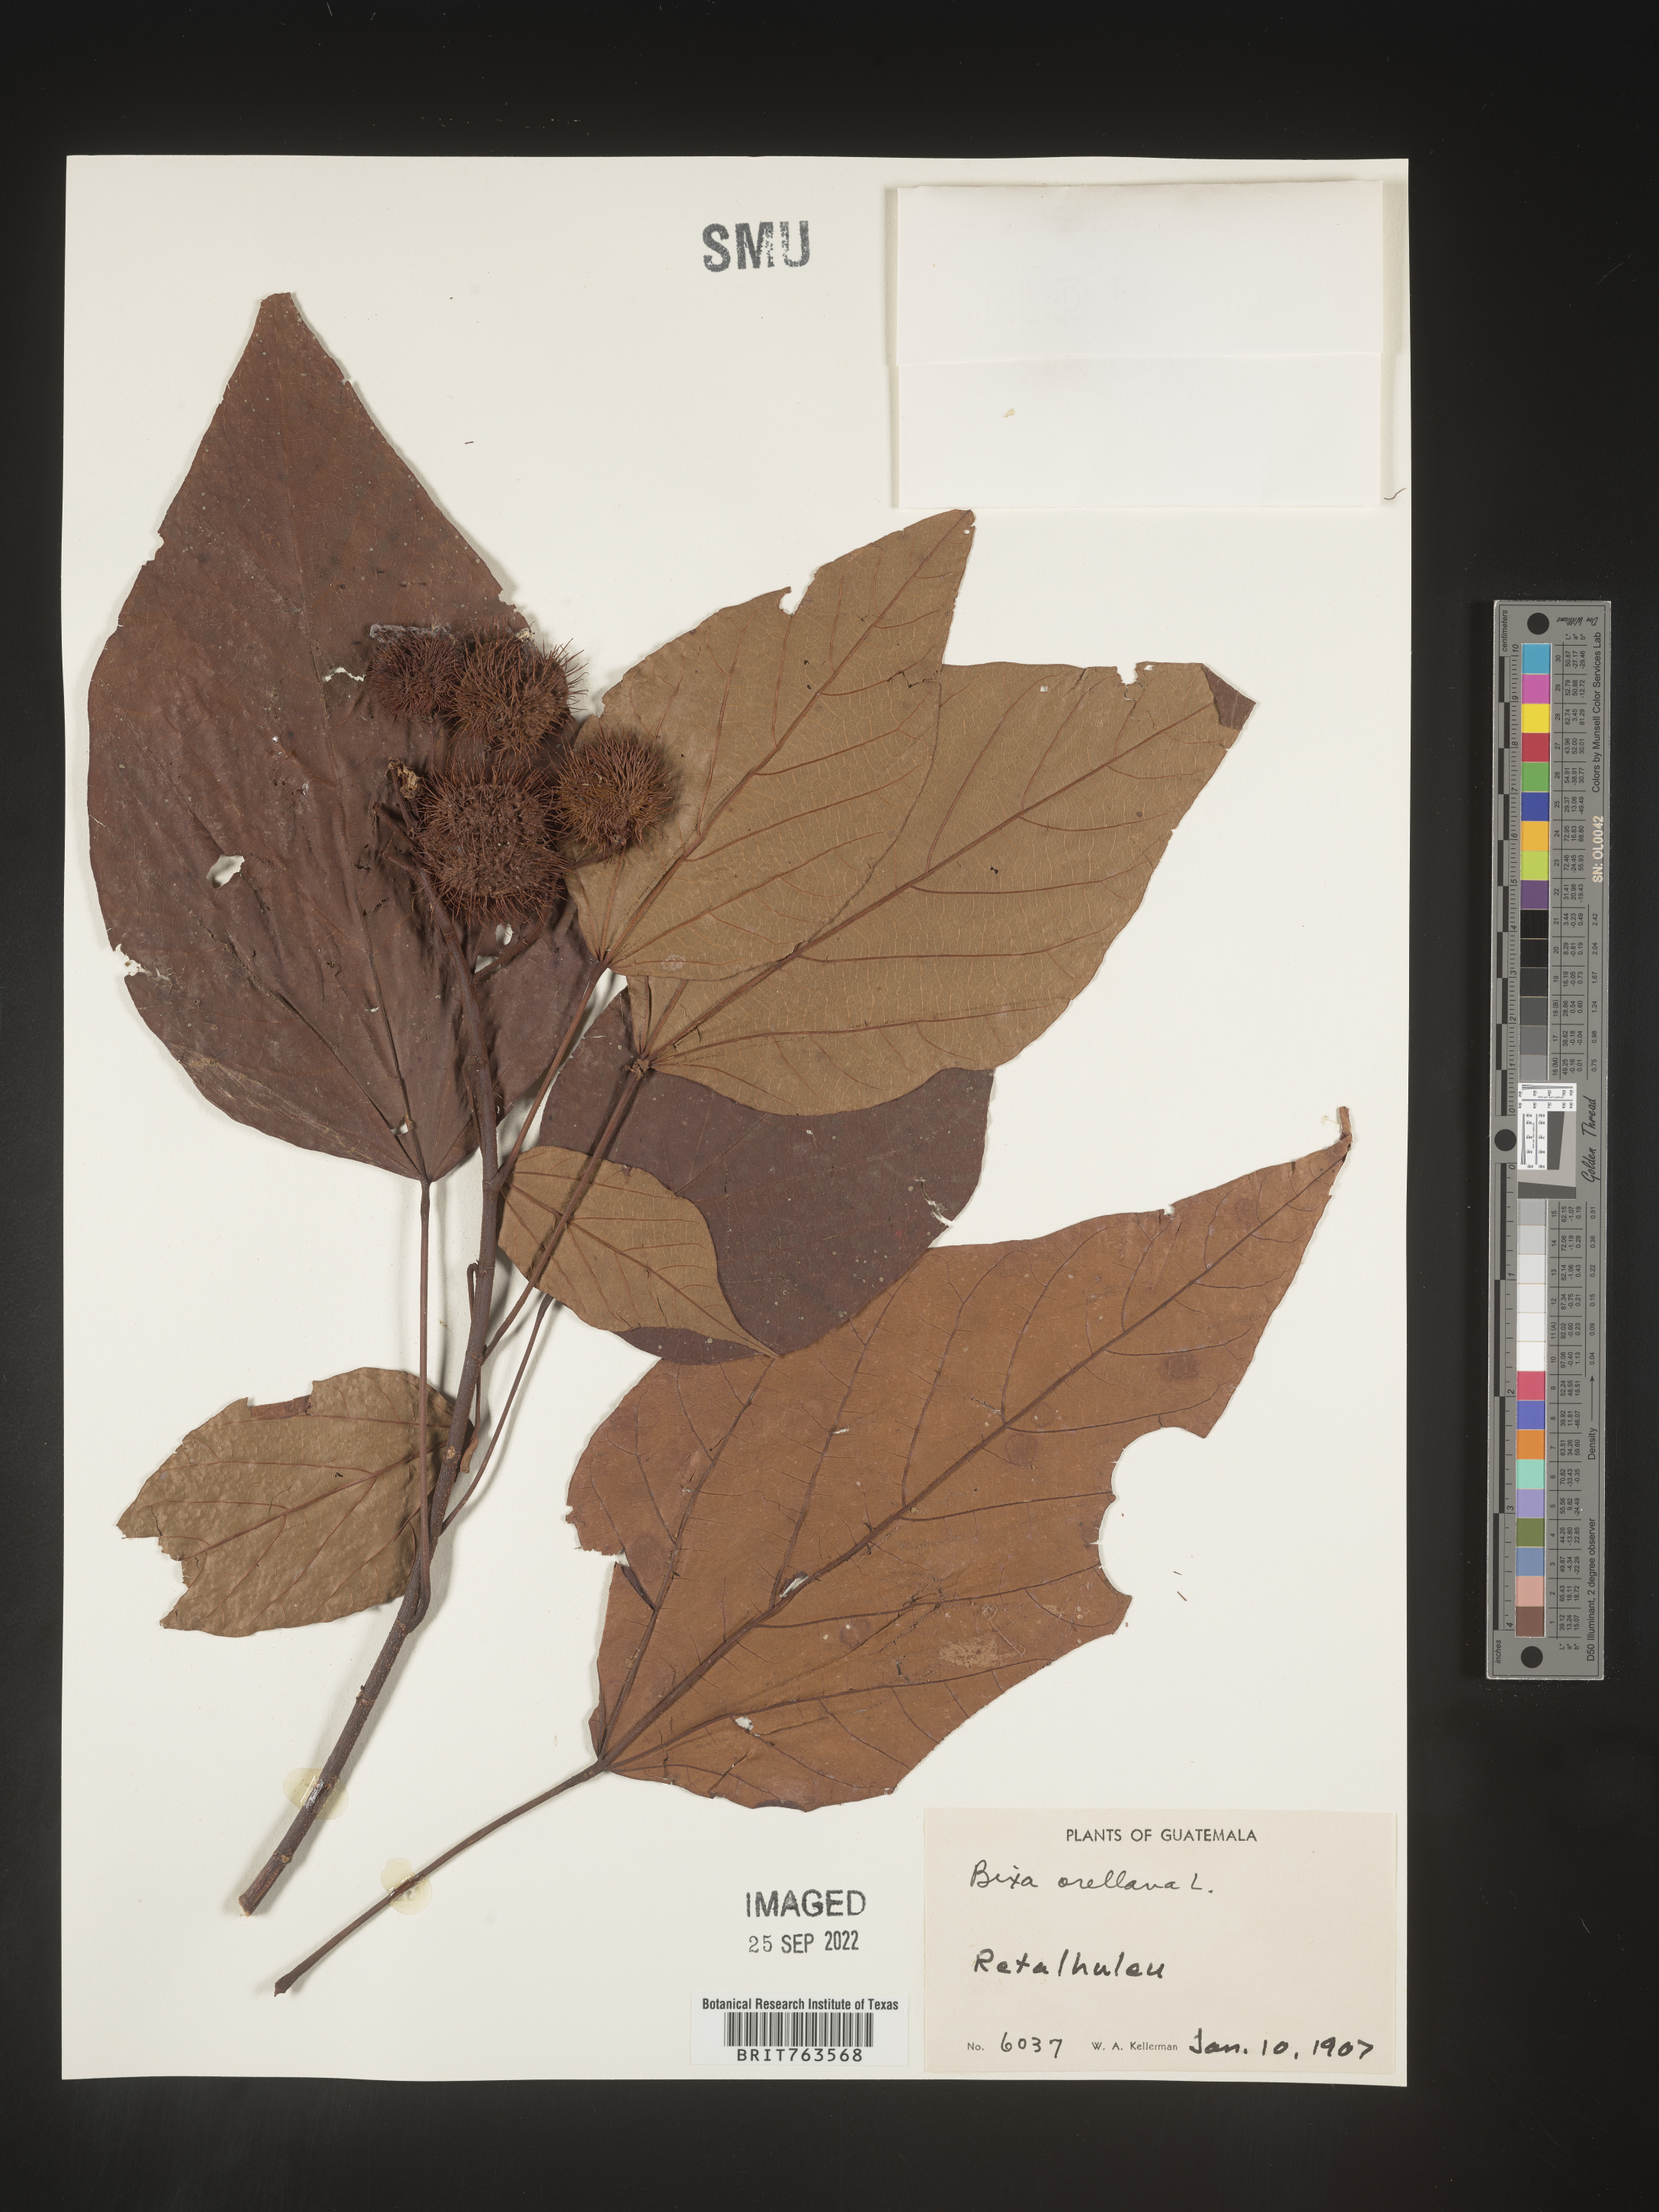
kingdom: Plantae
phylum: Tracheophyta
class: Magnoliopsida
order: Malvales
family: Bixaceae
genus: Bixa
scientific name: Bixa
